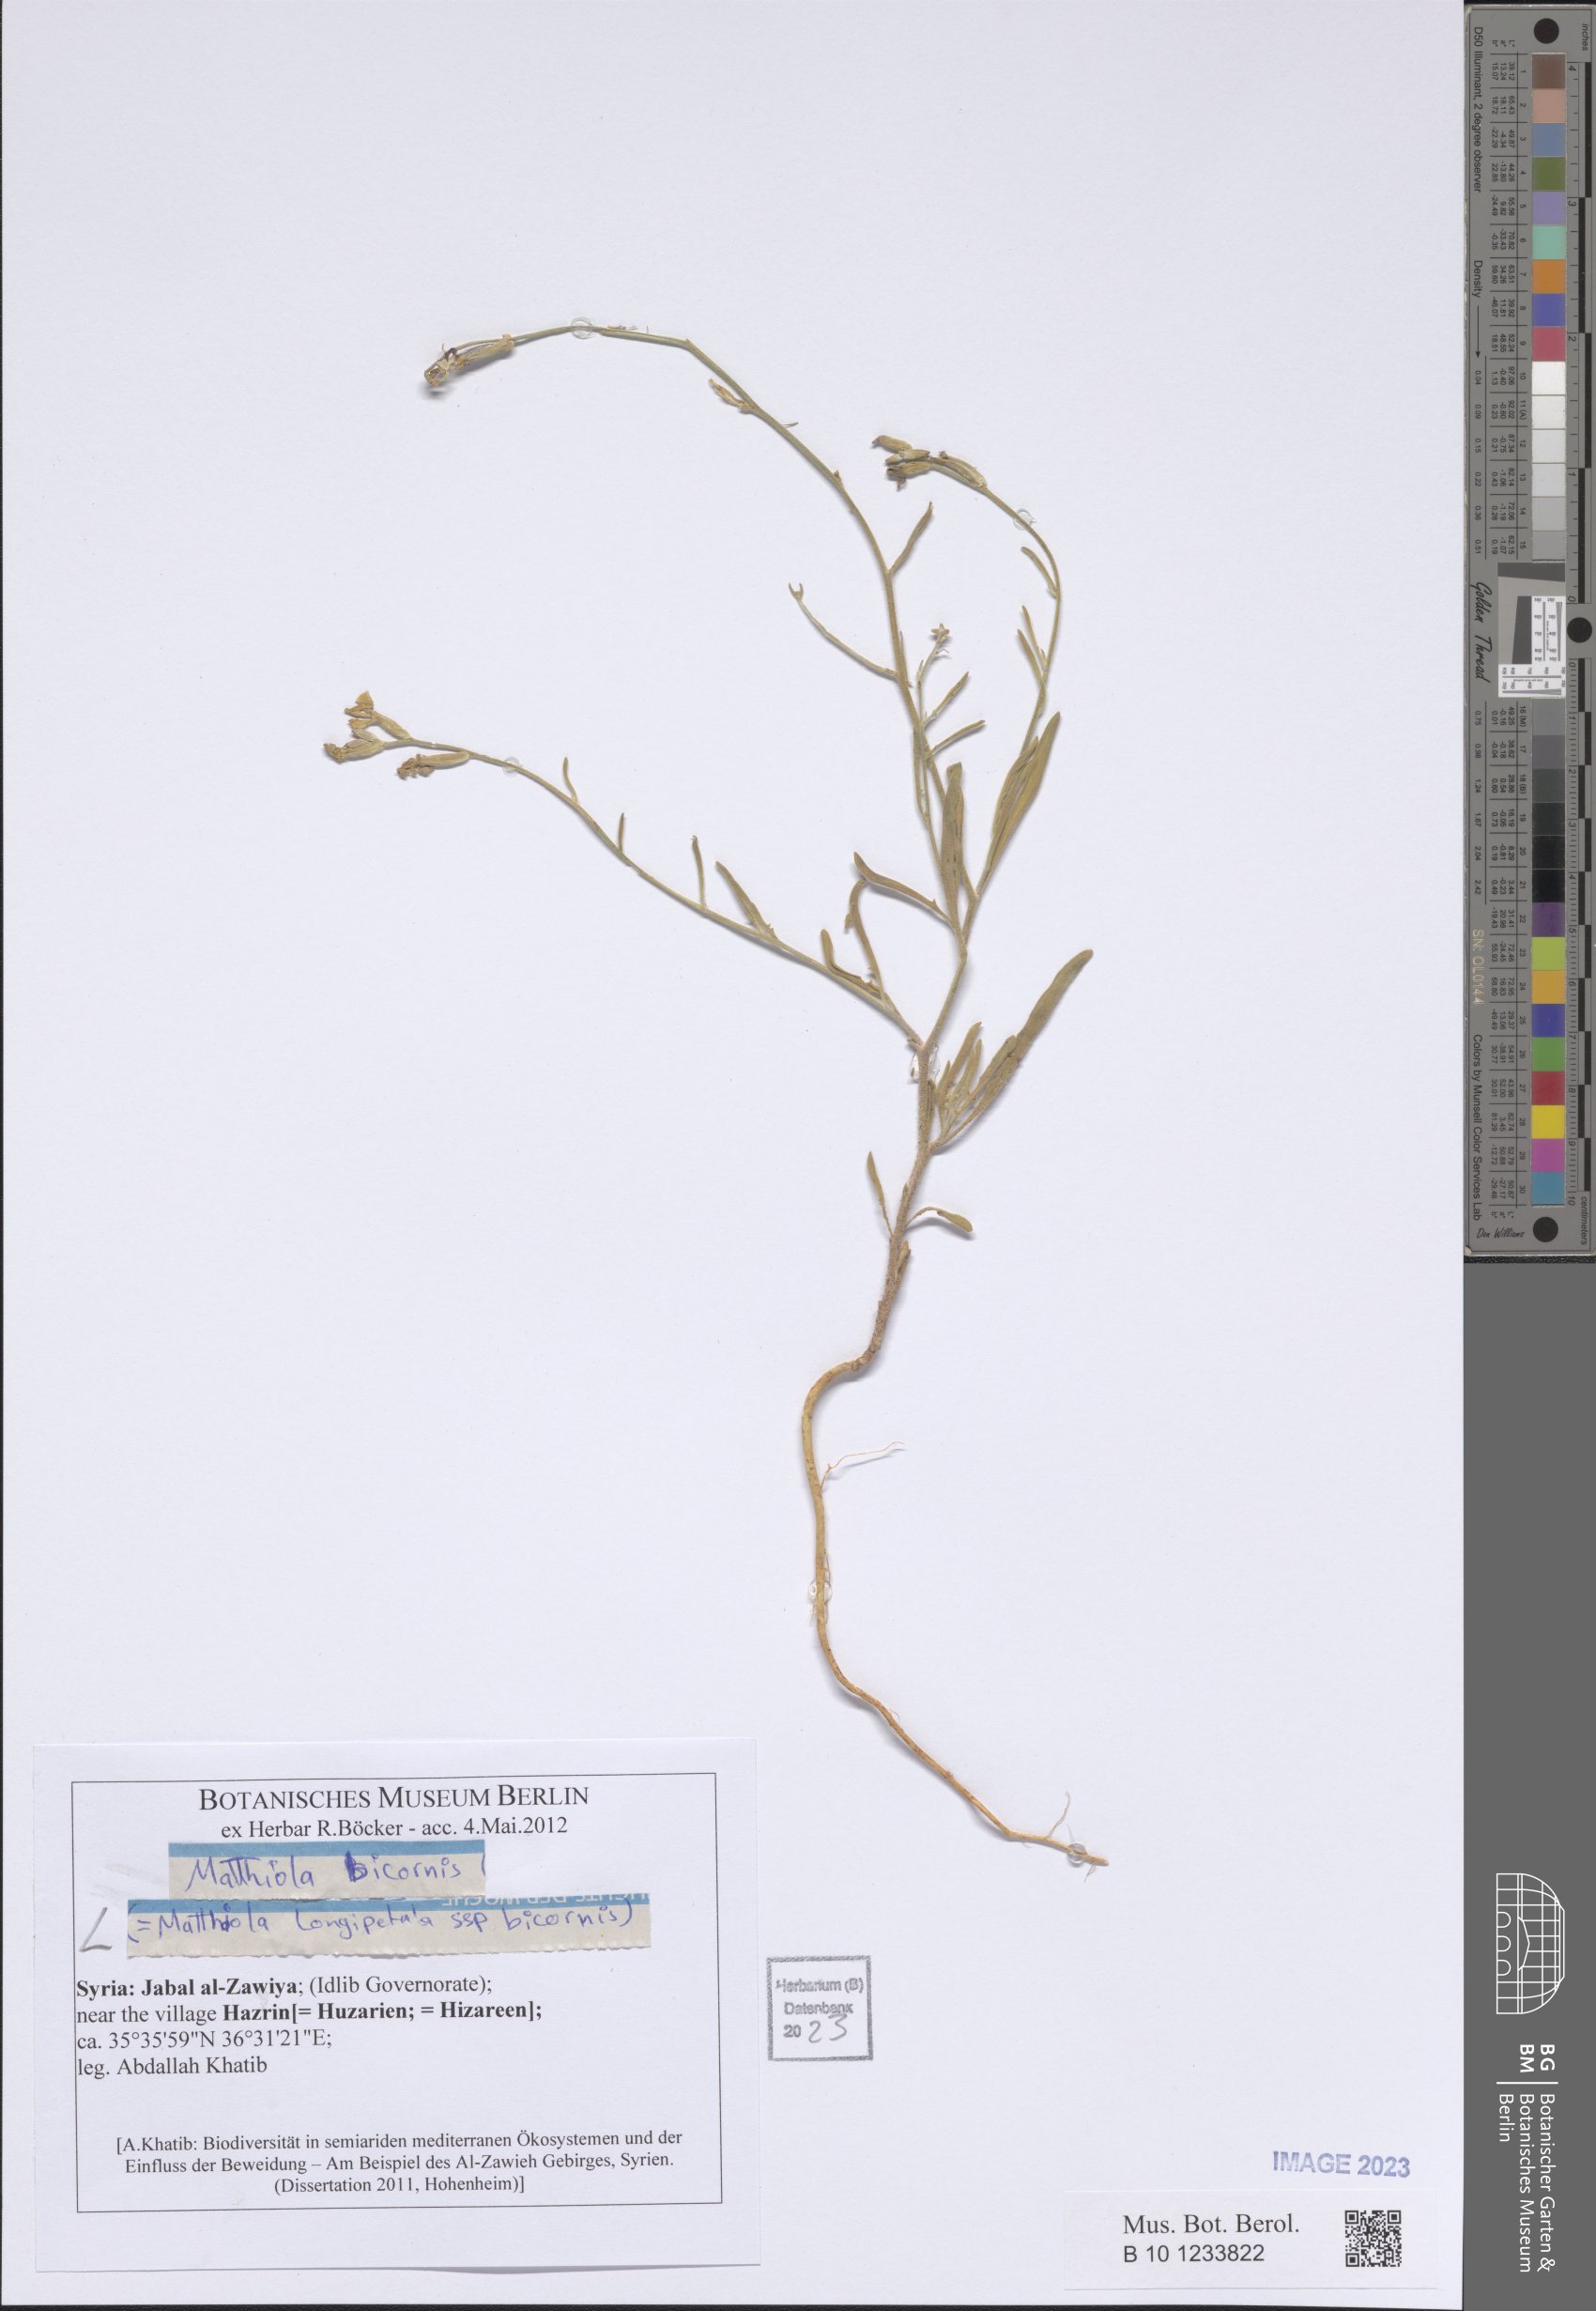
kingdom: Plantae
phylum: Tracheophyta
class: Magnoliopsida
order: Brassicales
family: Brassicaceae
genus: Matthiola
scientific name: Matthiola longipetala
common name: Night-scented stock
